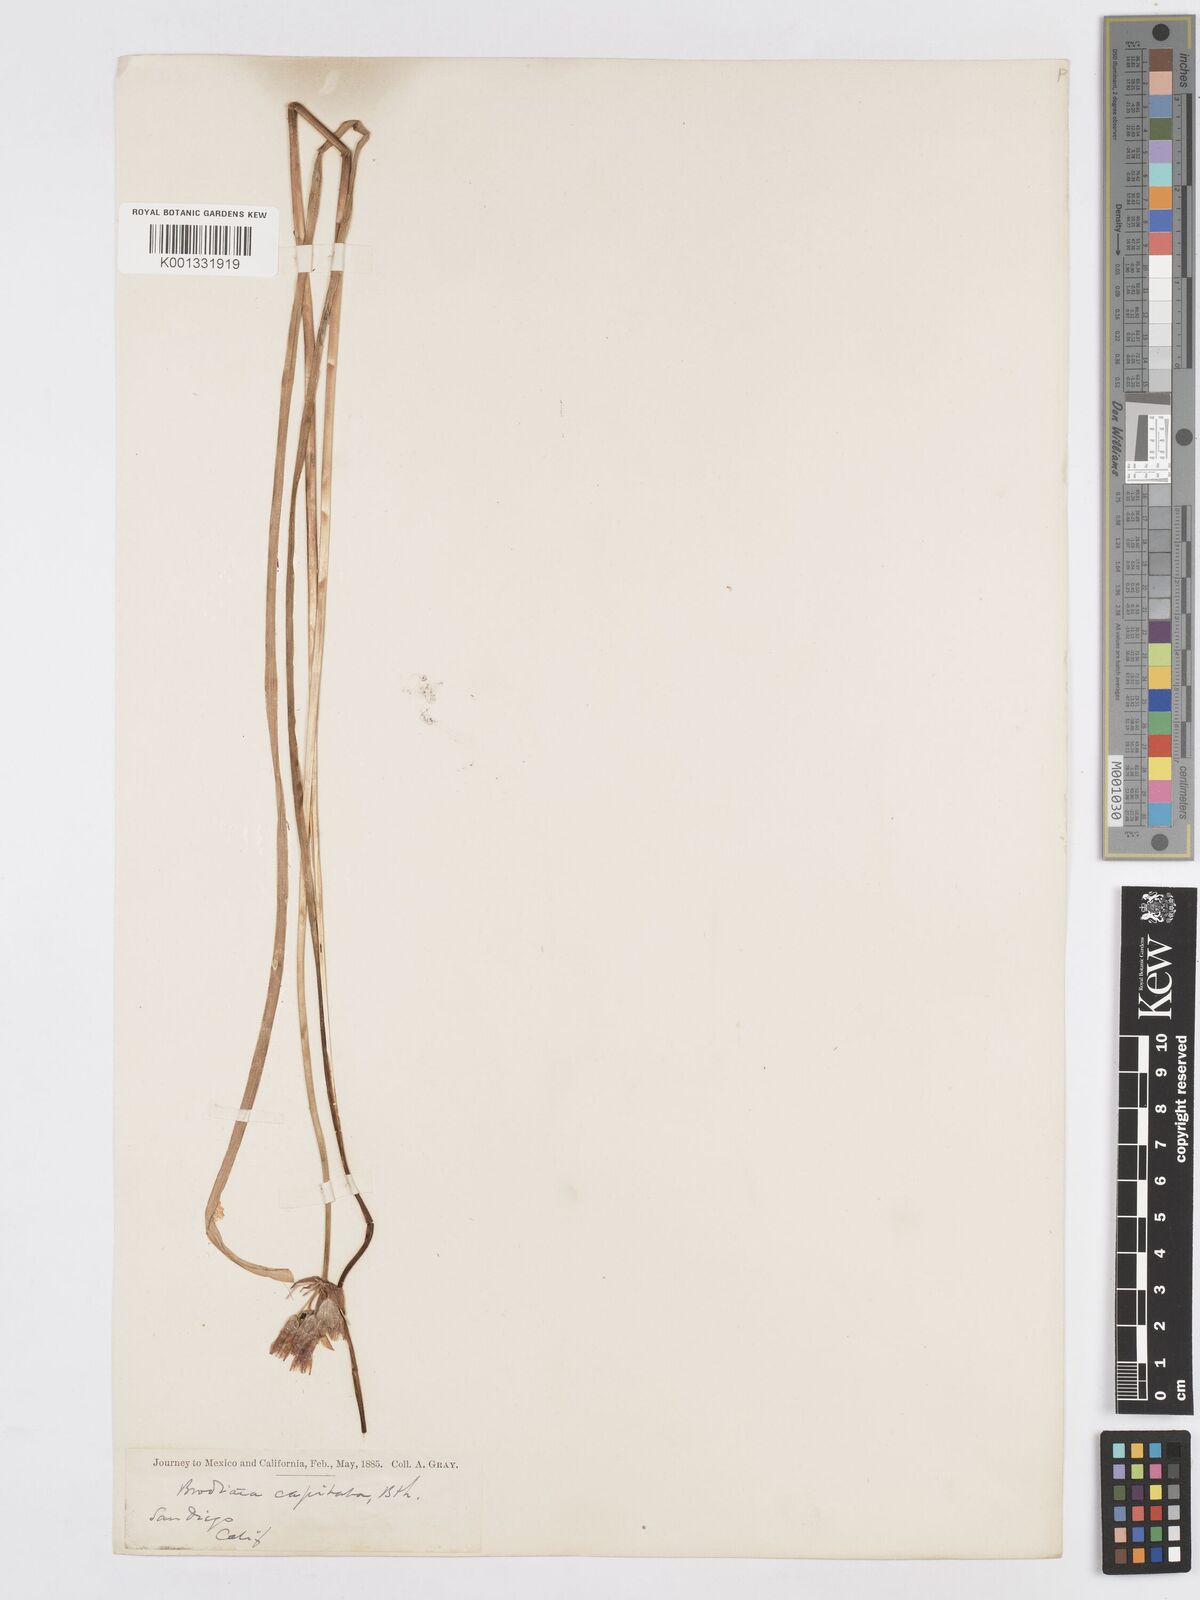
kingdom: Plantae
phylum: Tracheophyta
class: Liliopsida
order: Asparagales
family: Asparagaceae
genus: Dichelostemma
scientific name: Dichelostemma congestum
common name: Fork-tooth ookow
